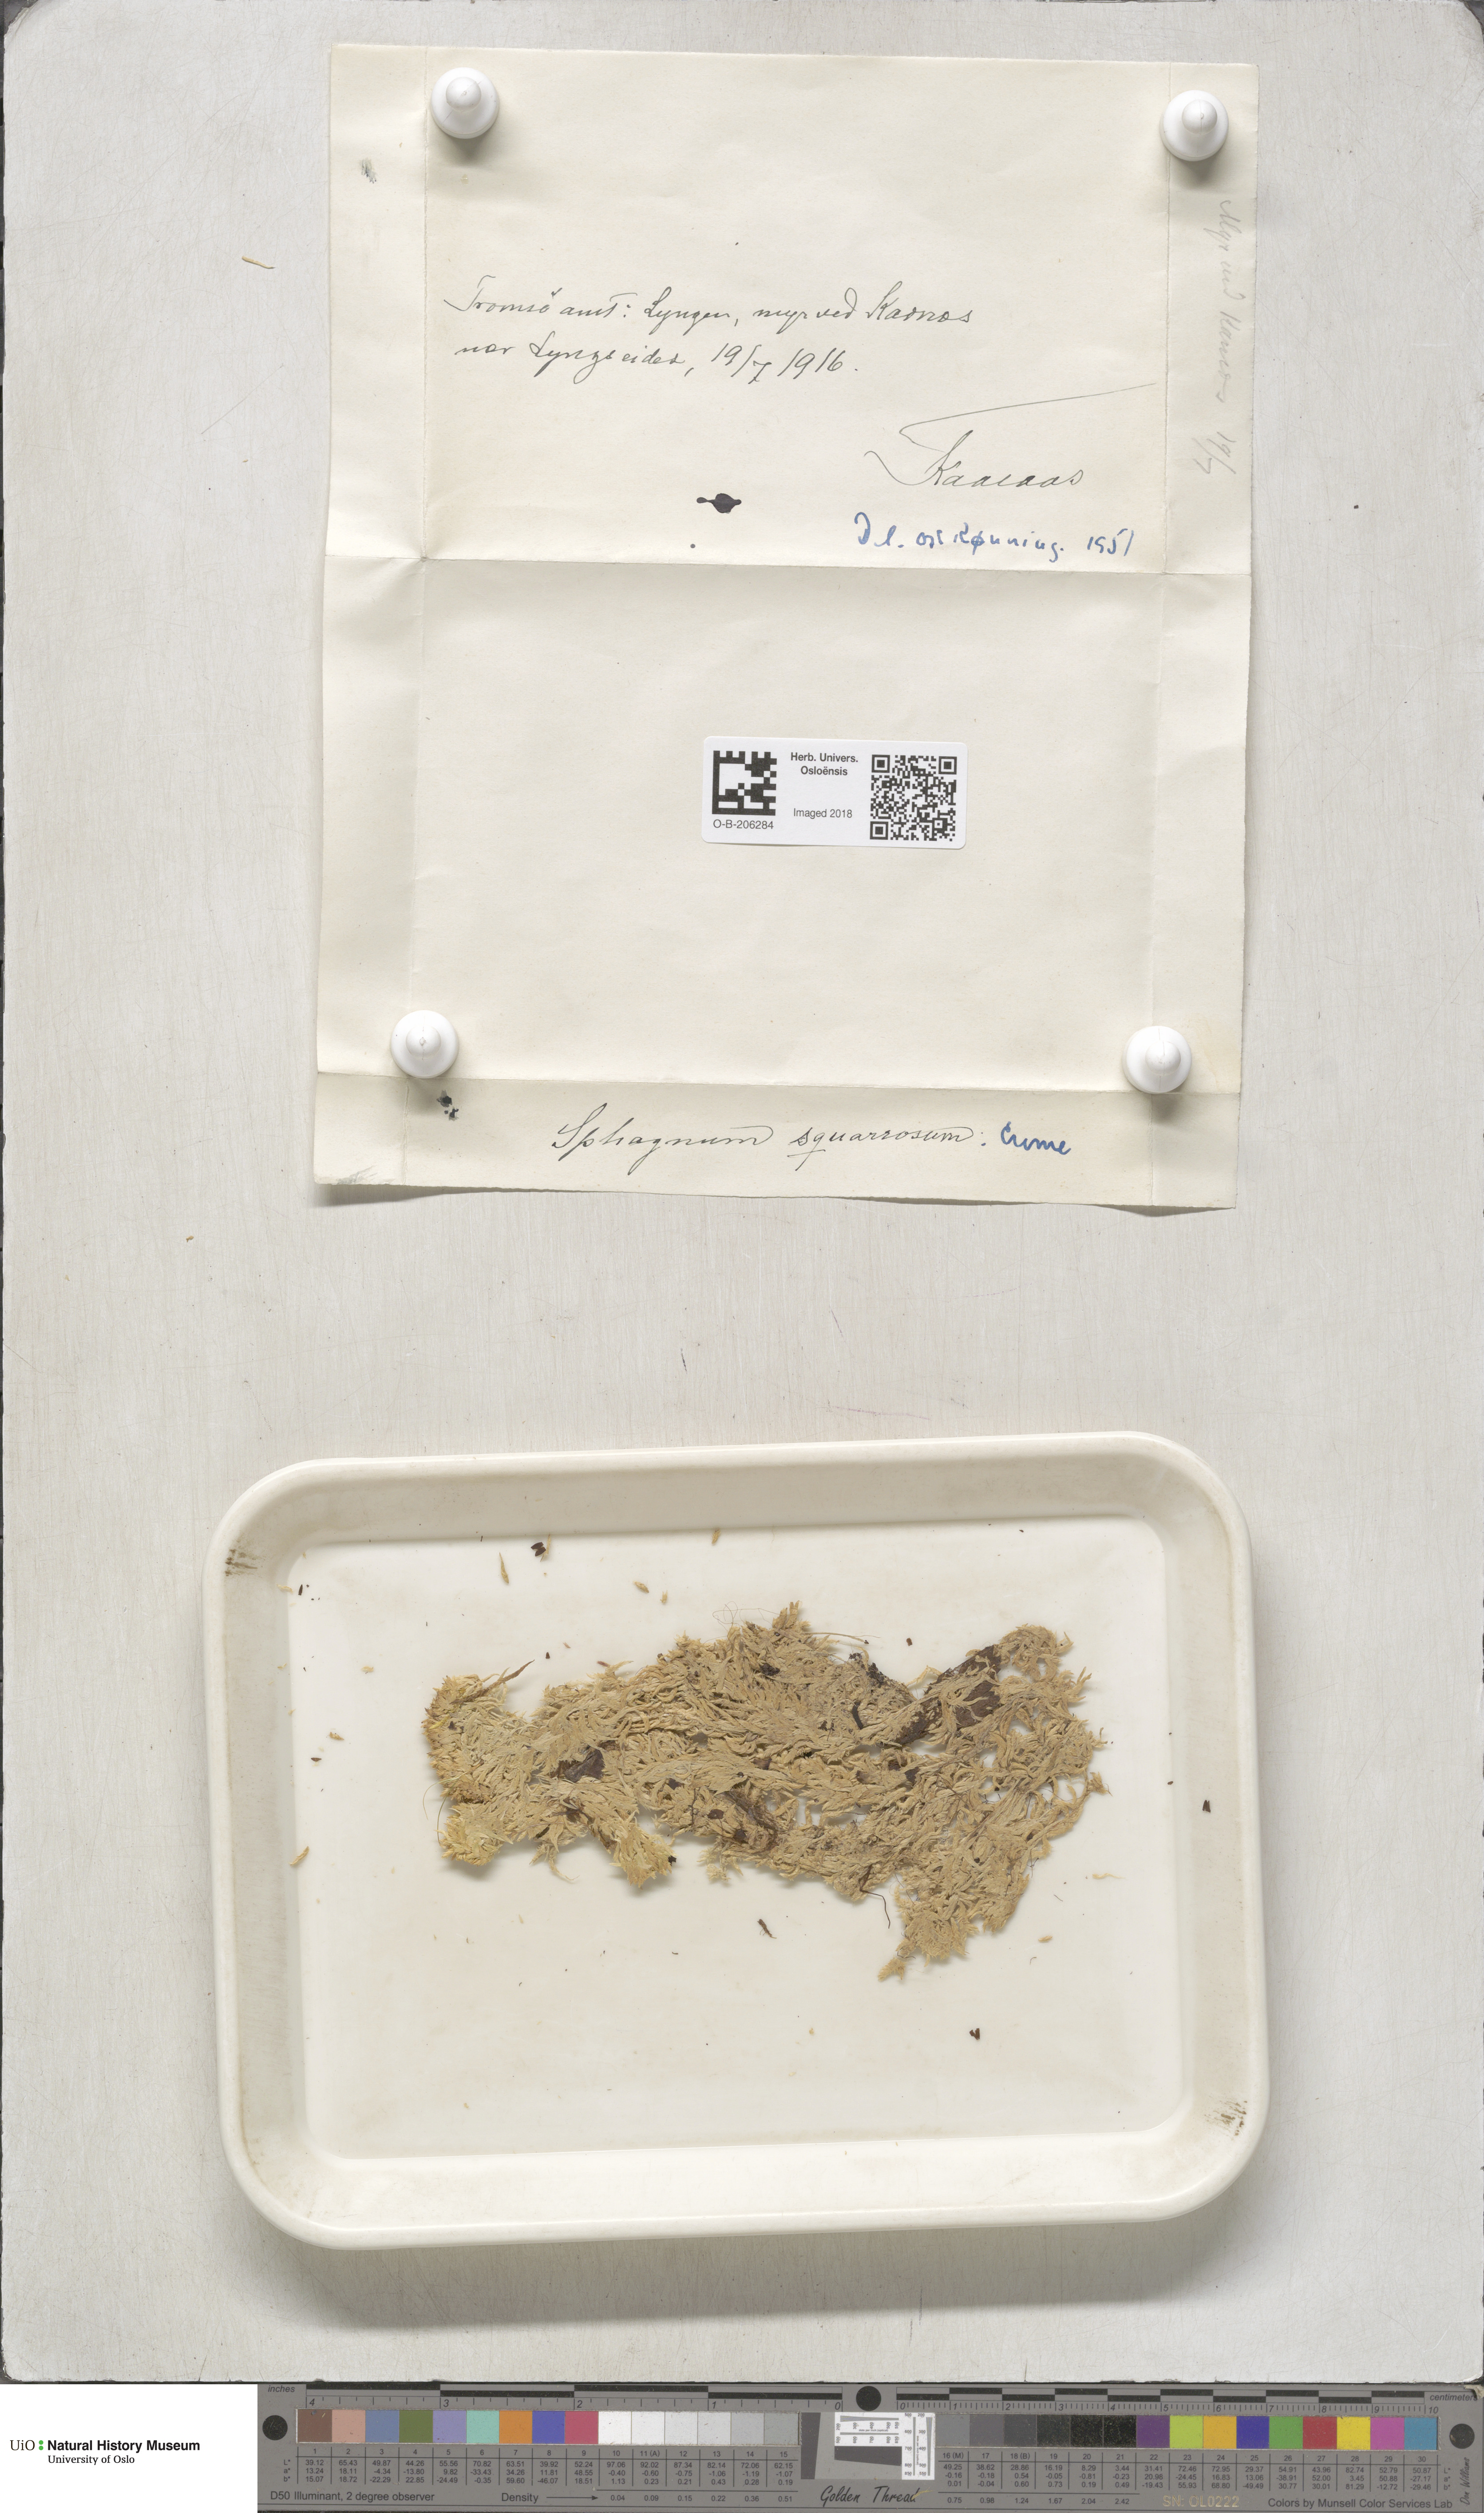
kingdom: Plantae
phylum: Bryophyta
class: Sphagnopsida
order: Sphagnales
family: Sphagnaceae
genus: Sphagnum
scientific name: Sphagnum squarrosum
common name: Shaggy peat moss
